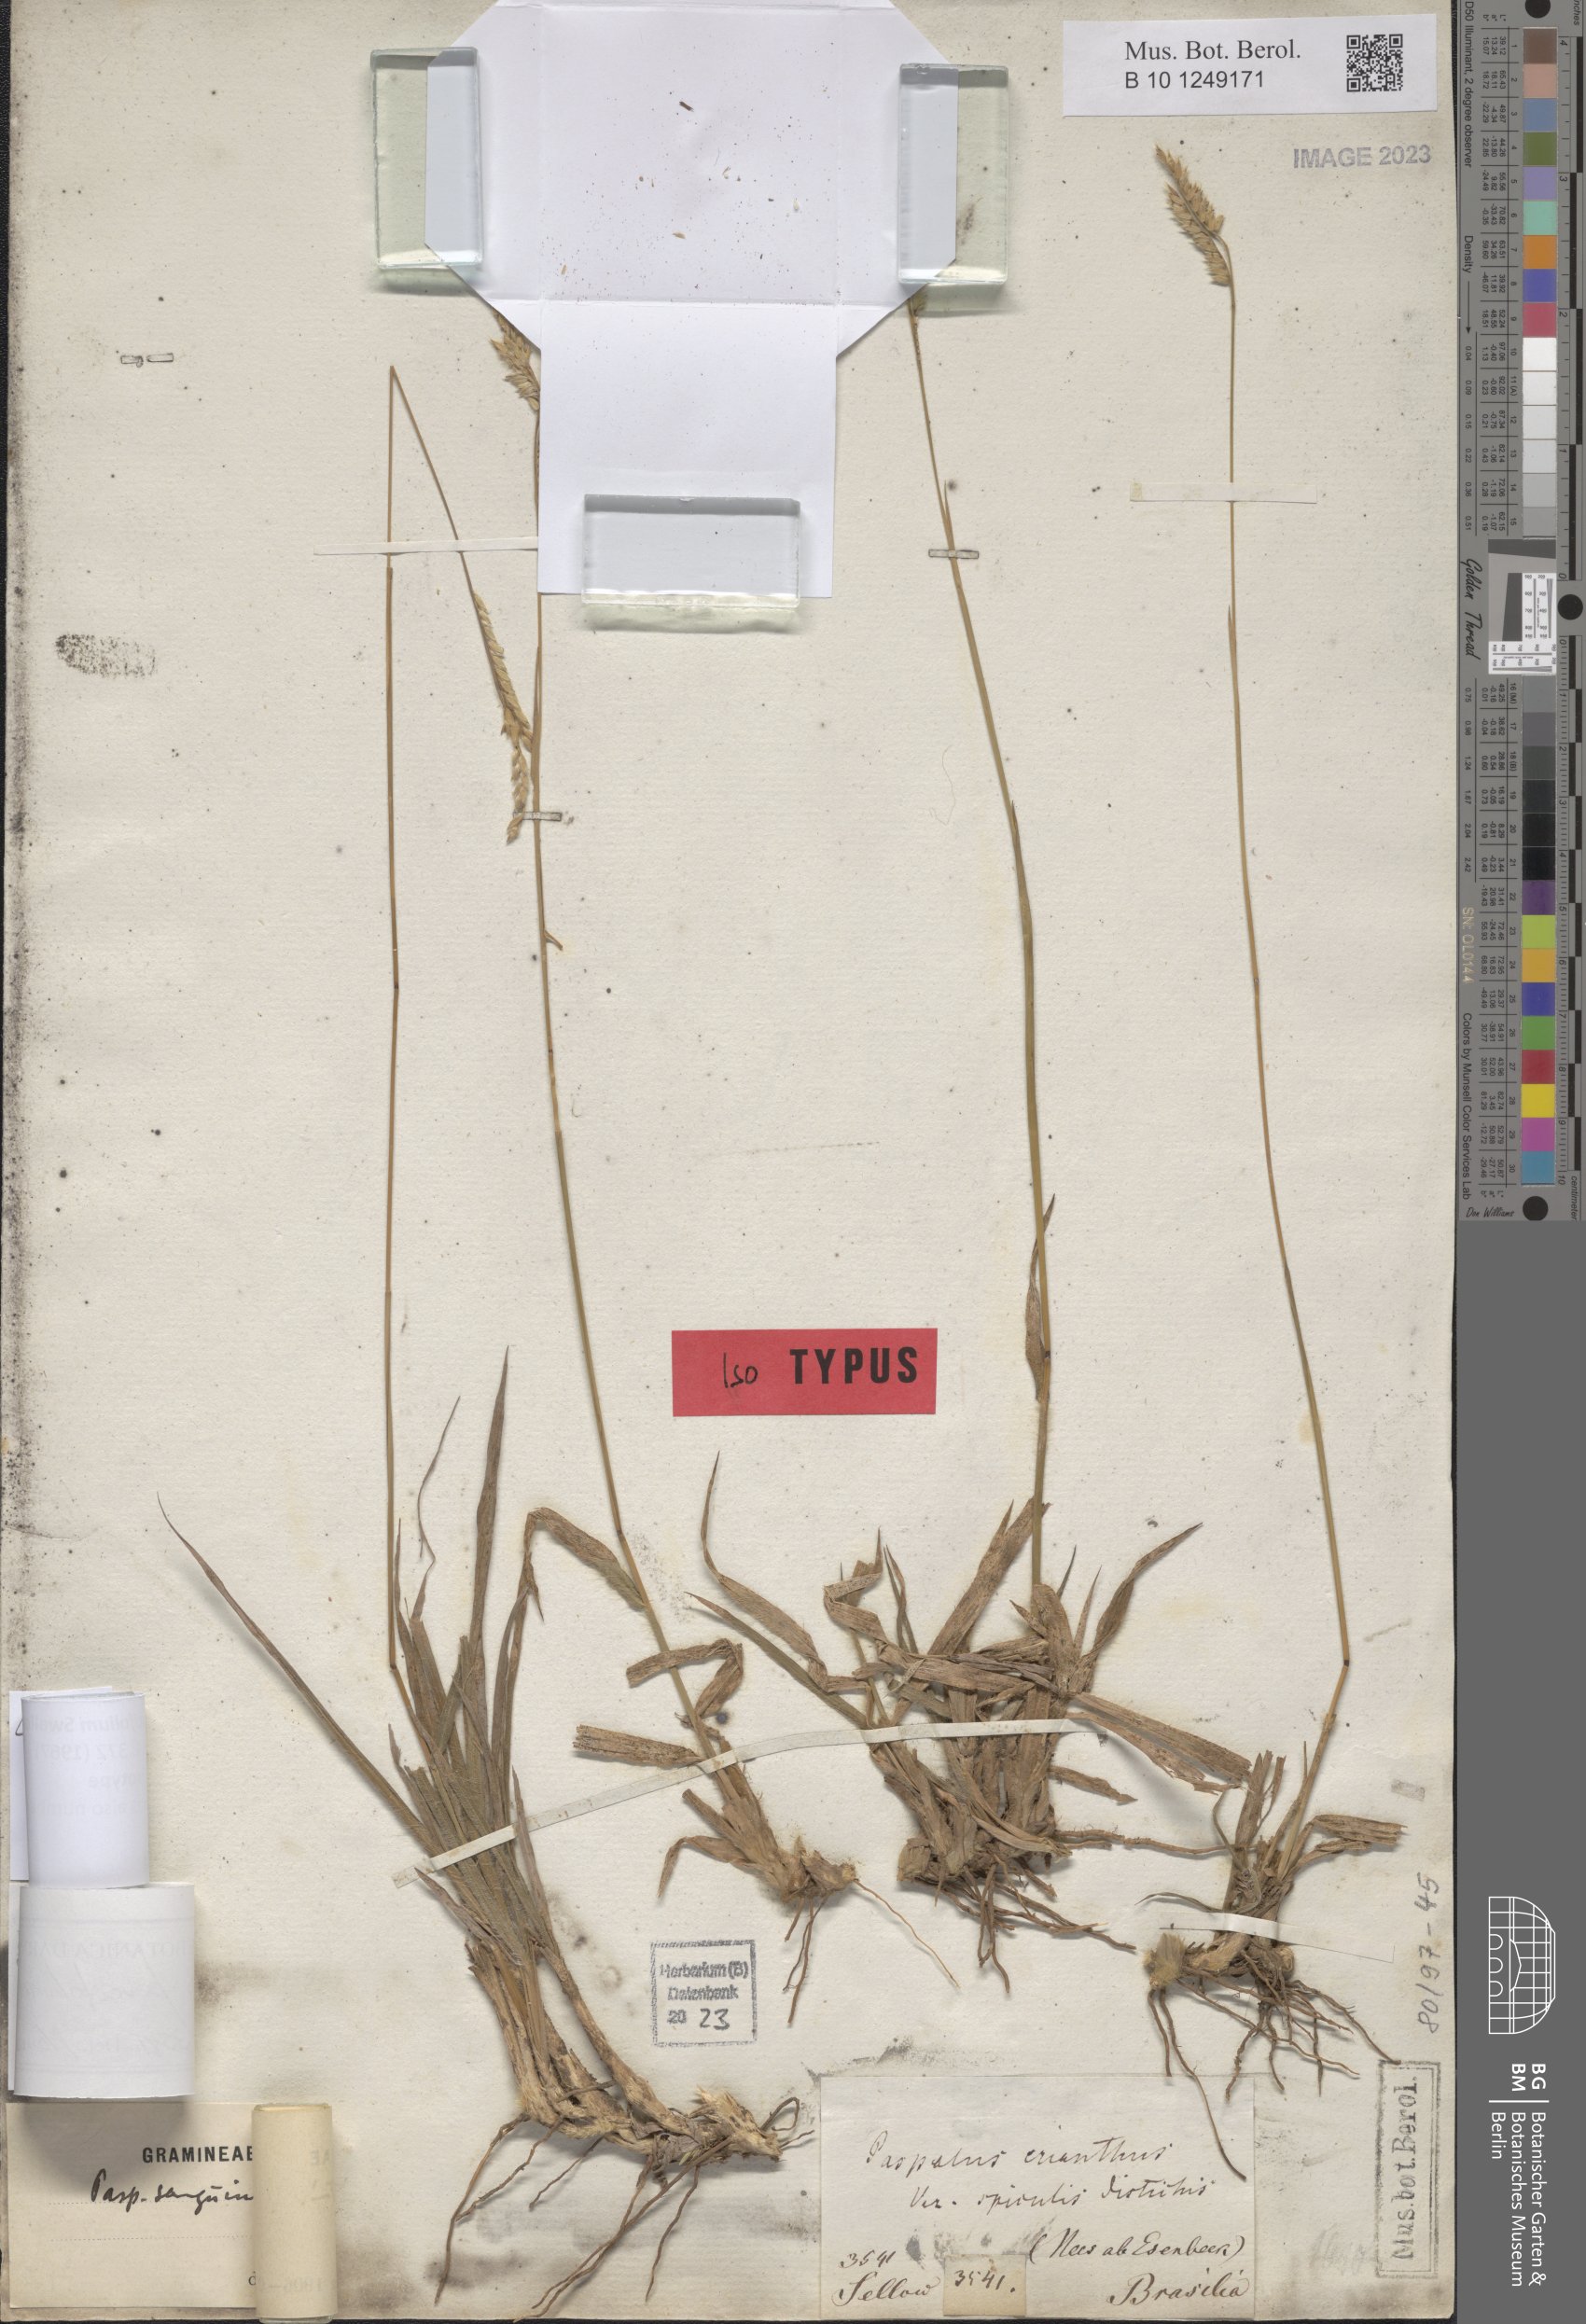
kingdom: Plantae
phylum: Tracheophyta
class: Liliopsida
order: Poales
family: Poaceae
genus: Paspalum
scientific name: Paspalum paucifolium
